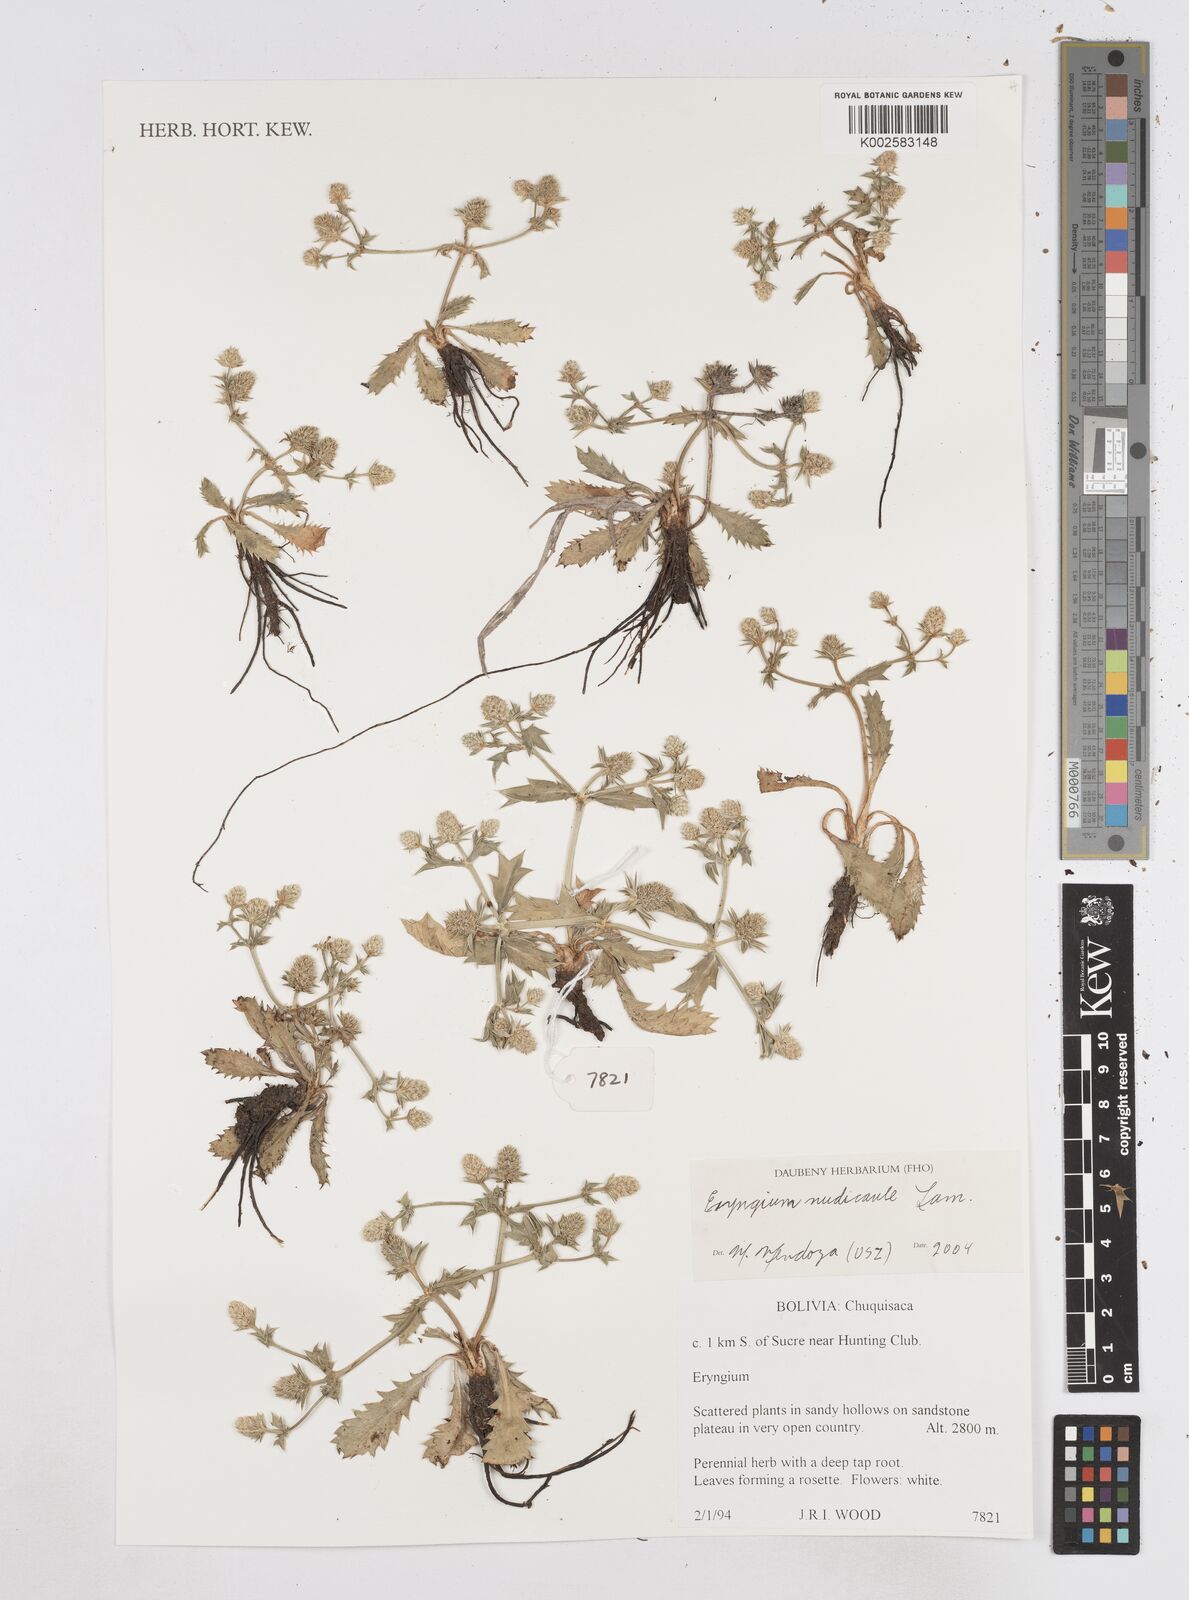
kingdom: Plantae
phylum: Tracheophyta
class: Magnoliopsida
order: Apiales
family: Apiaceae
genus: Eryngium
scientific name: Eryngium nudicaule
